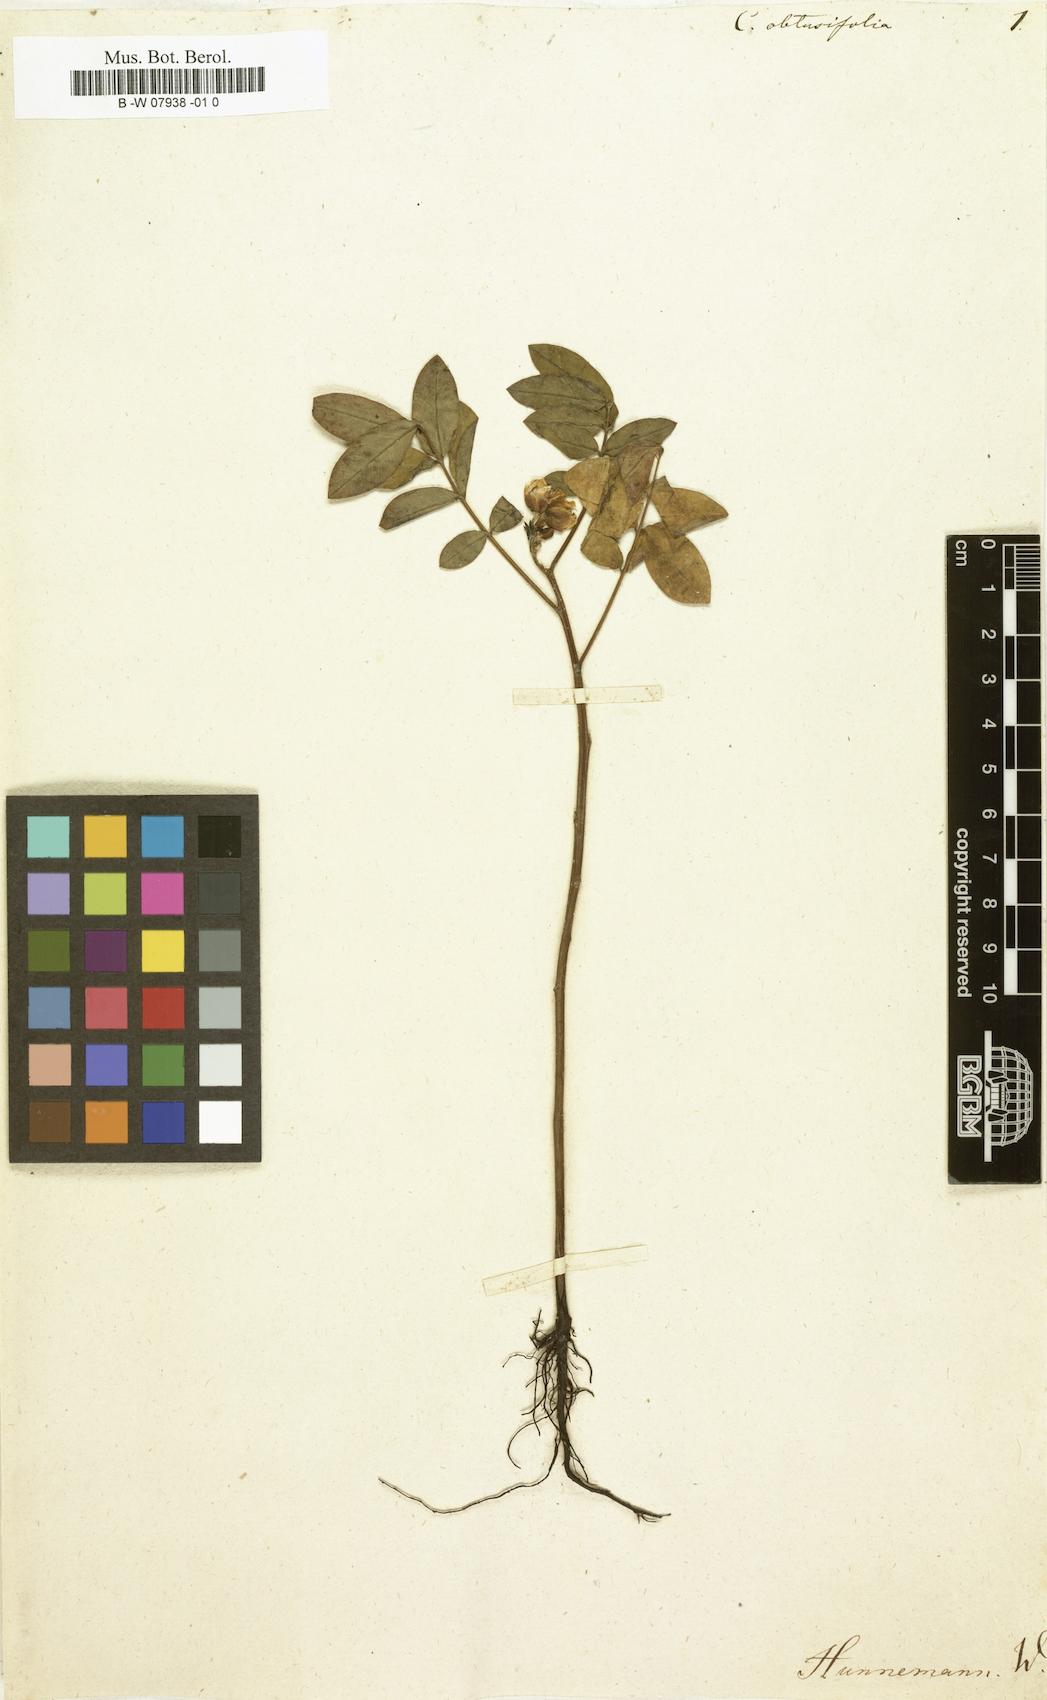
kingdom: Plantae
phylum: Tracheophyta
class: Magnoliopsida
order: Fabales
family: Fabaceae
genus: Senna
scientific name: Senna obtusifolia
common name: Java-bean
